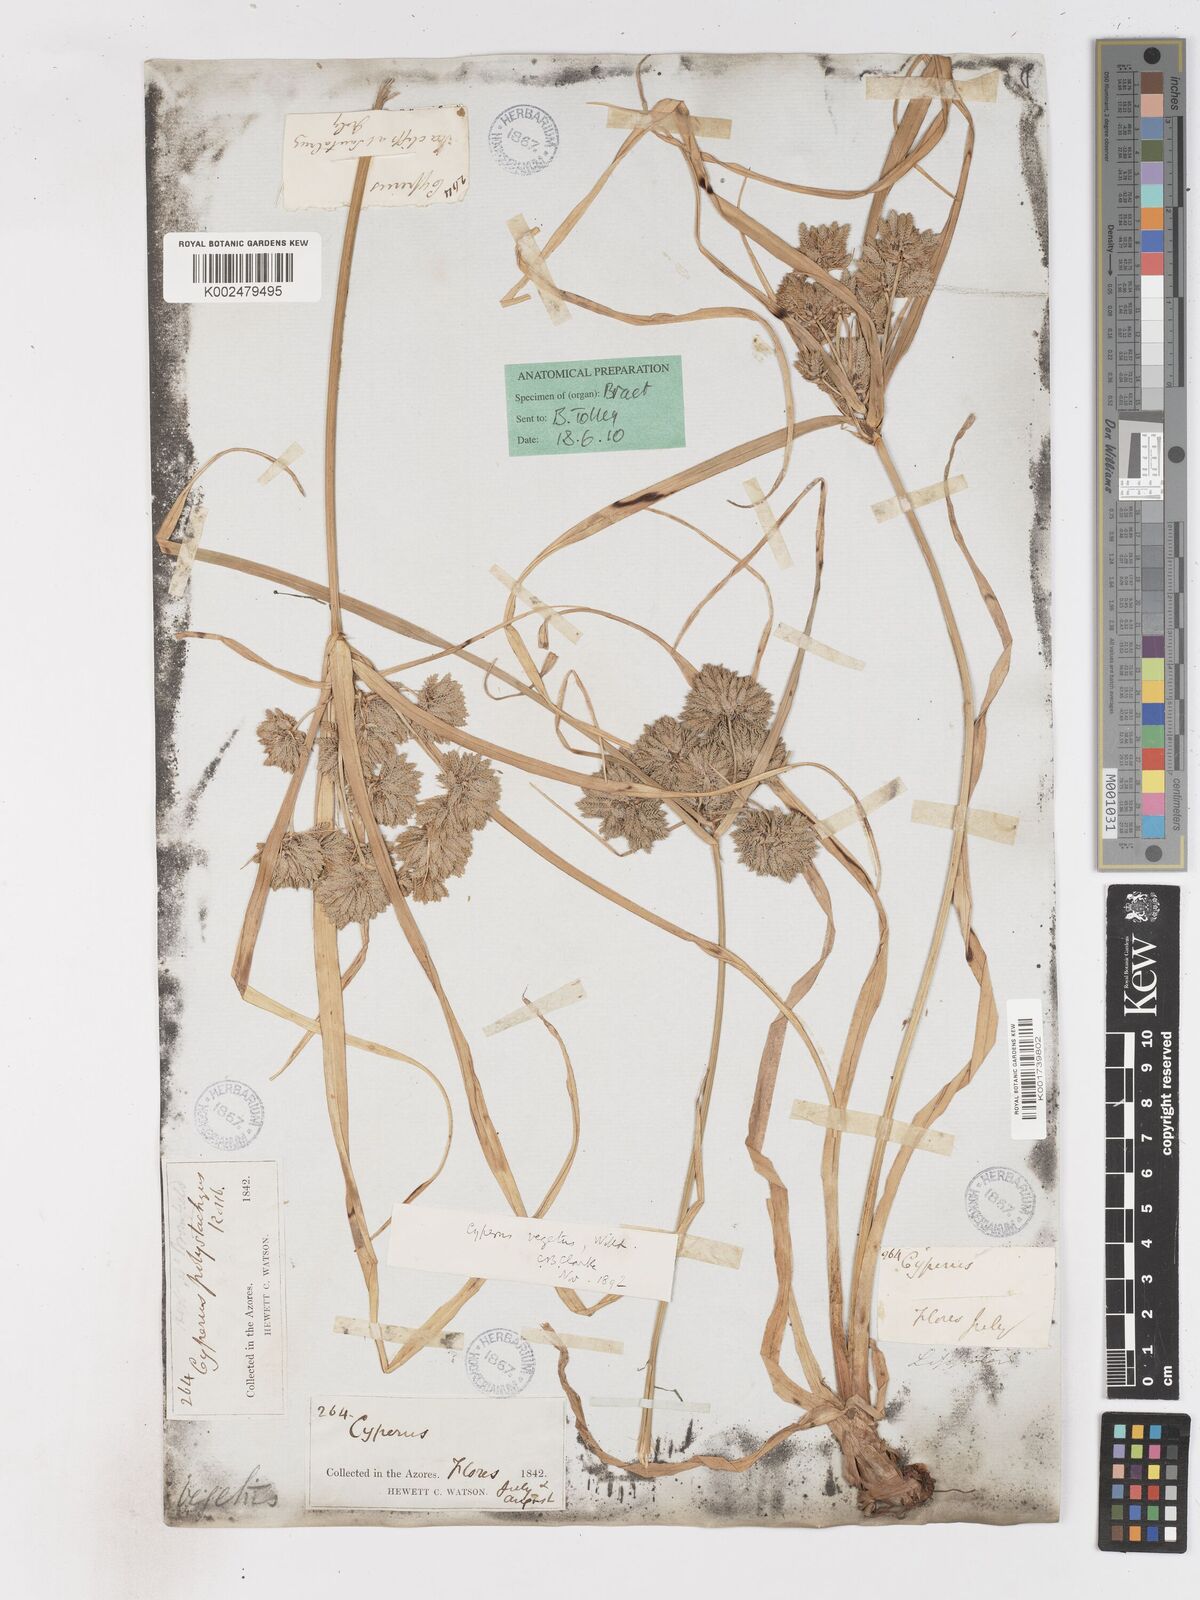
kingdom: Plantae
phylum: Tracheophyta
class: Liliopsida
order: Poales
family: Cyperaceae
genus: Cyperus
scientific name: Cyperus eragrostis
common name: Tall flatsedge
